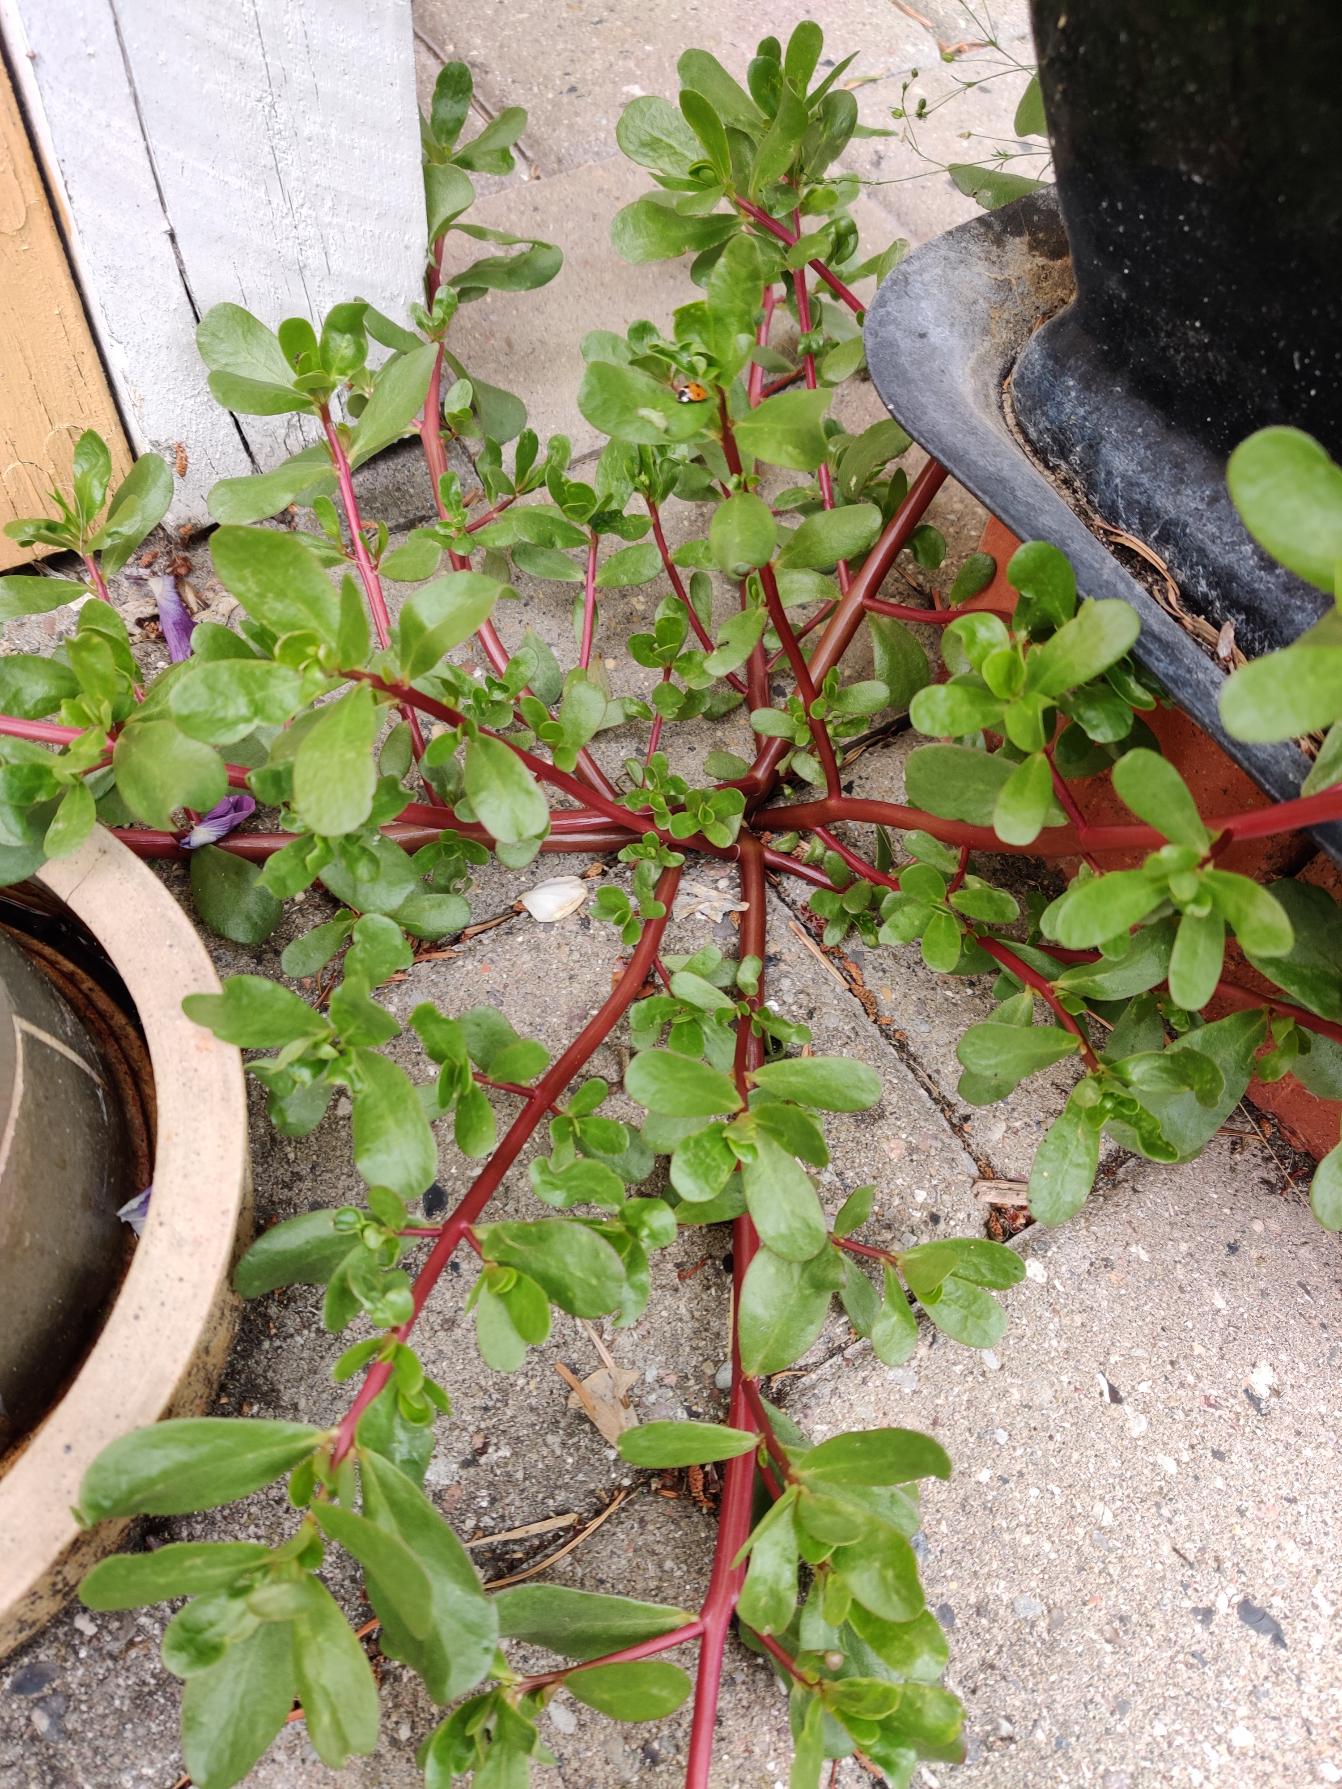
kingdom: Plantae
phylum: Tracheophyta
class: Magnoliopsida
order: Caryophyllales
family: Portulacaceae
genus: Portulaca
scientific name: Portulaca oleracea
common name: Portulak
